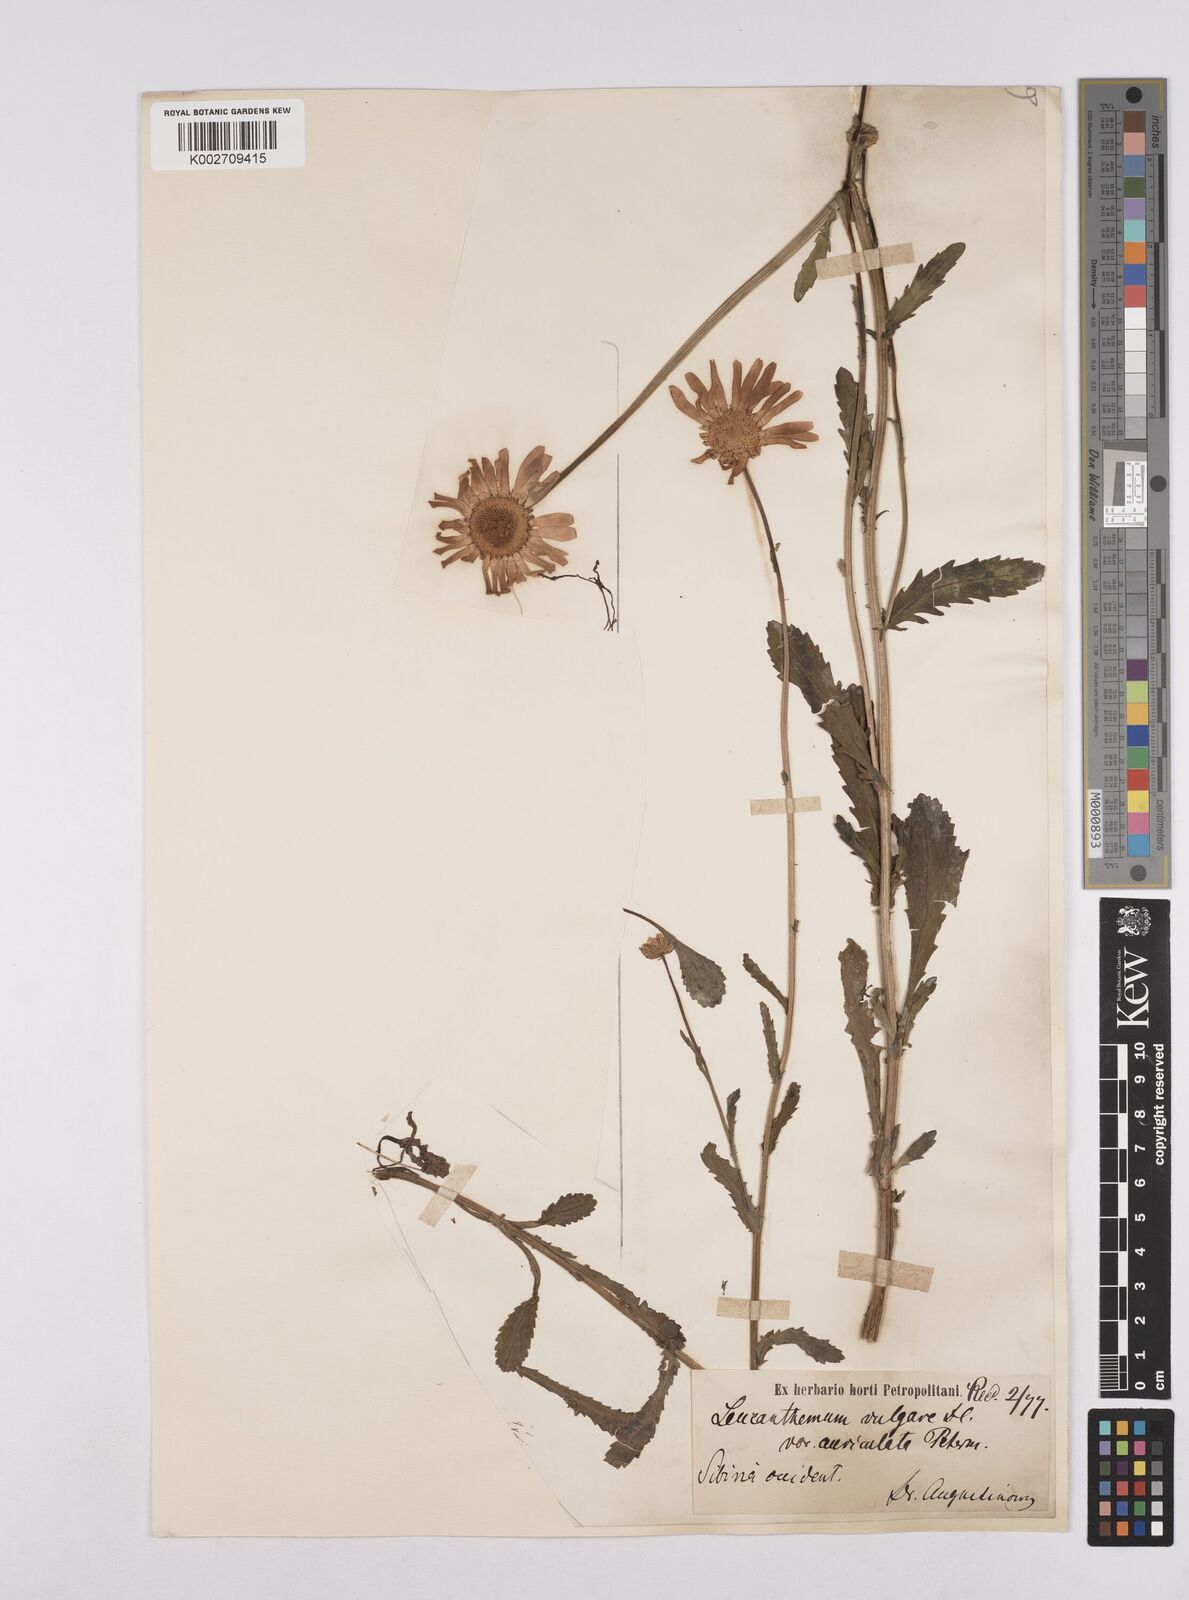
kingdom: Plantae
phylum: Tracheophyta
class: Magnoliopsida
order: Asterales
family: Asteraceae
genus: Leucanthemum
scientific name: Leucanthemum vulgare
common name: Oxeye daisy
